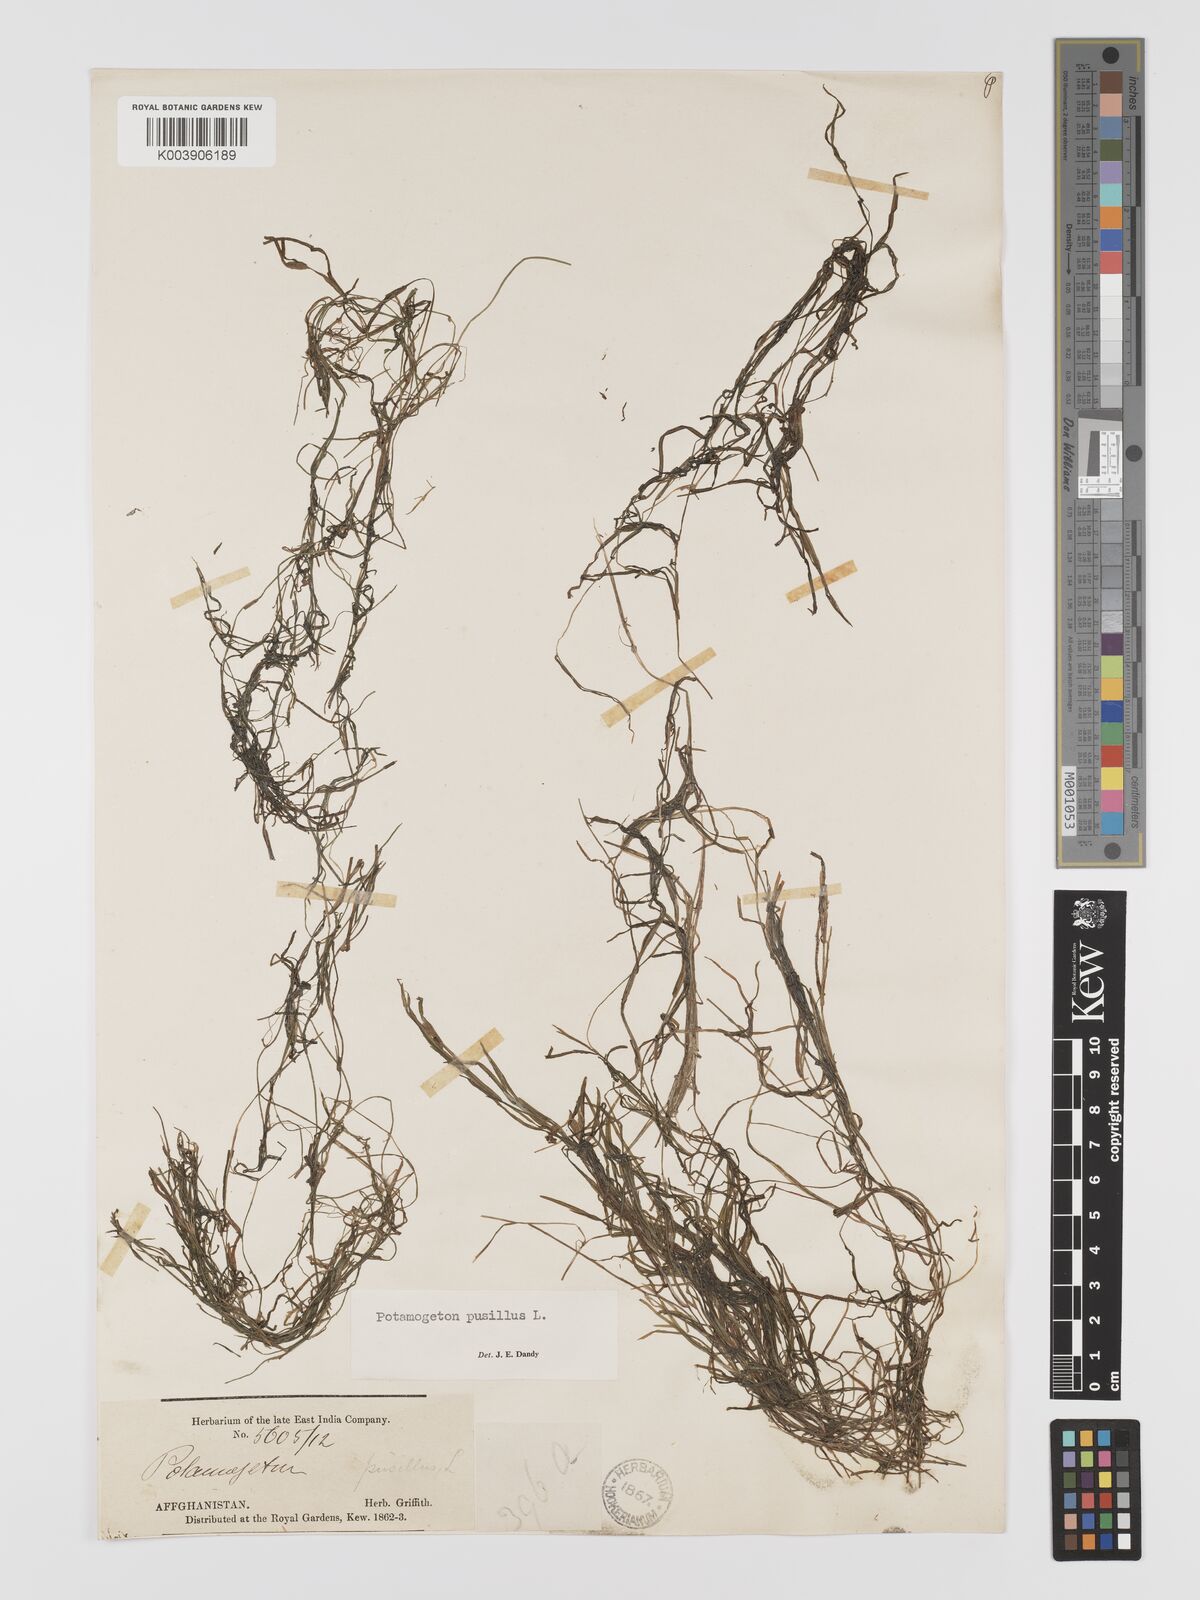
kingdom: Plantae
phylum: Tracheophyta
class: Liliopsida
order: Alismatales
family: Potamogetonaceae
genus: Potamogeton
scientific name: Potamogeton pusillus
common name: Lesser pondweed
